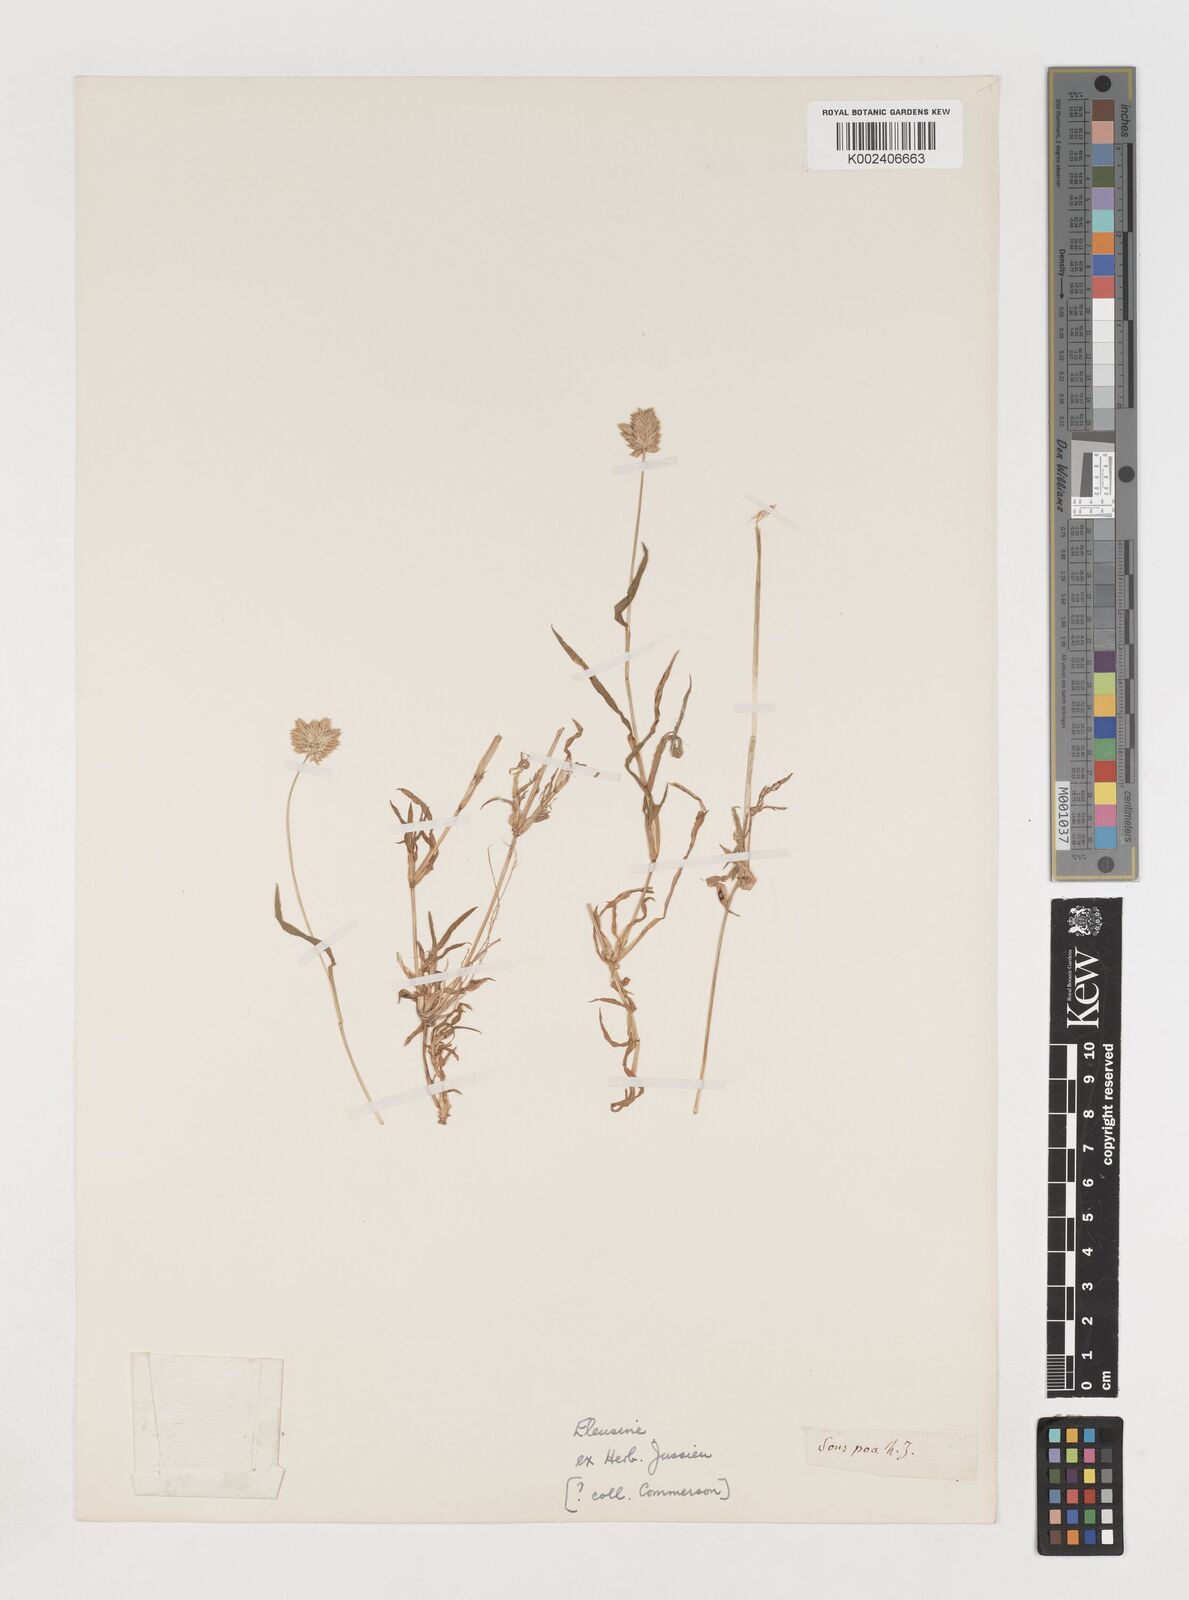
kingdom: Plantae
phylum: Tracheophyta
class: Liliopsida
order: Poales
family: Poaceae
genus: Coelachyrum
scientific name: Coelachyrum lagopoides
